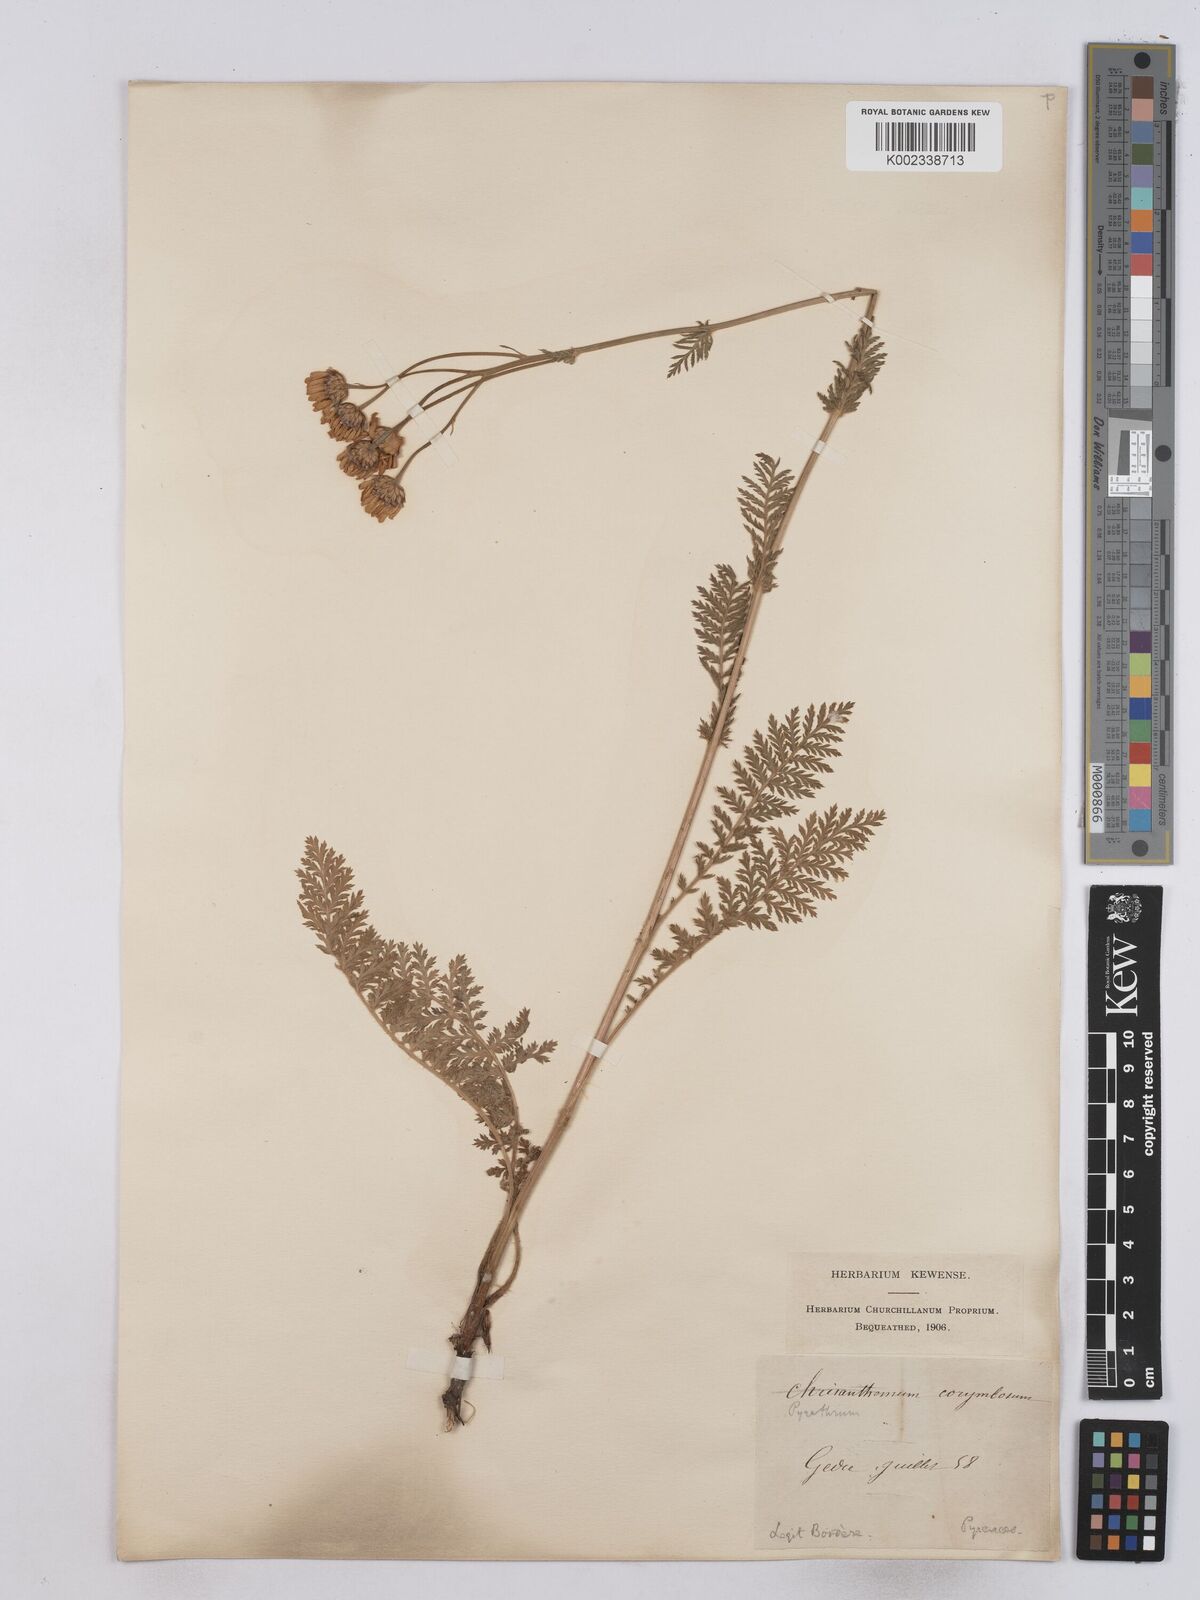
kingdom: Plantae
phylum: Tracheophyta
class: Magnoliopsida
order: Asterales
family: Asteraceae
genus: Tanacetum
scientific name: Tanacetum corymbosum
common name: Scentless feverfew
